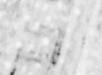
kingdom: Animalia
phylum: Chordata
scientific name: Chordata
